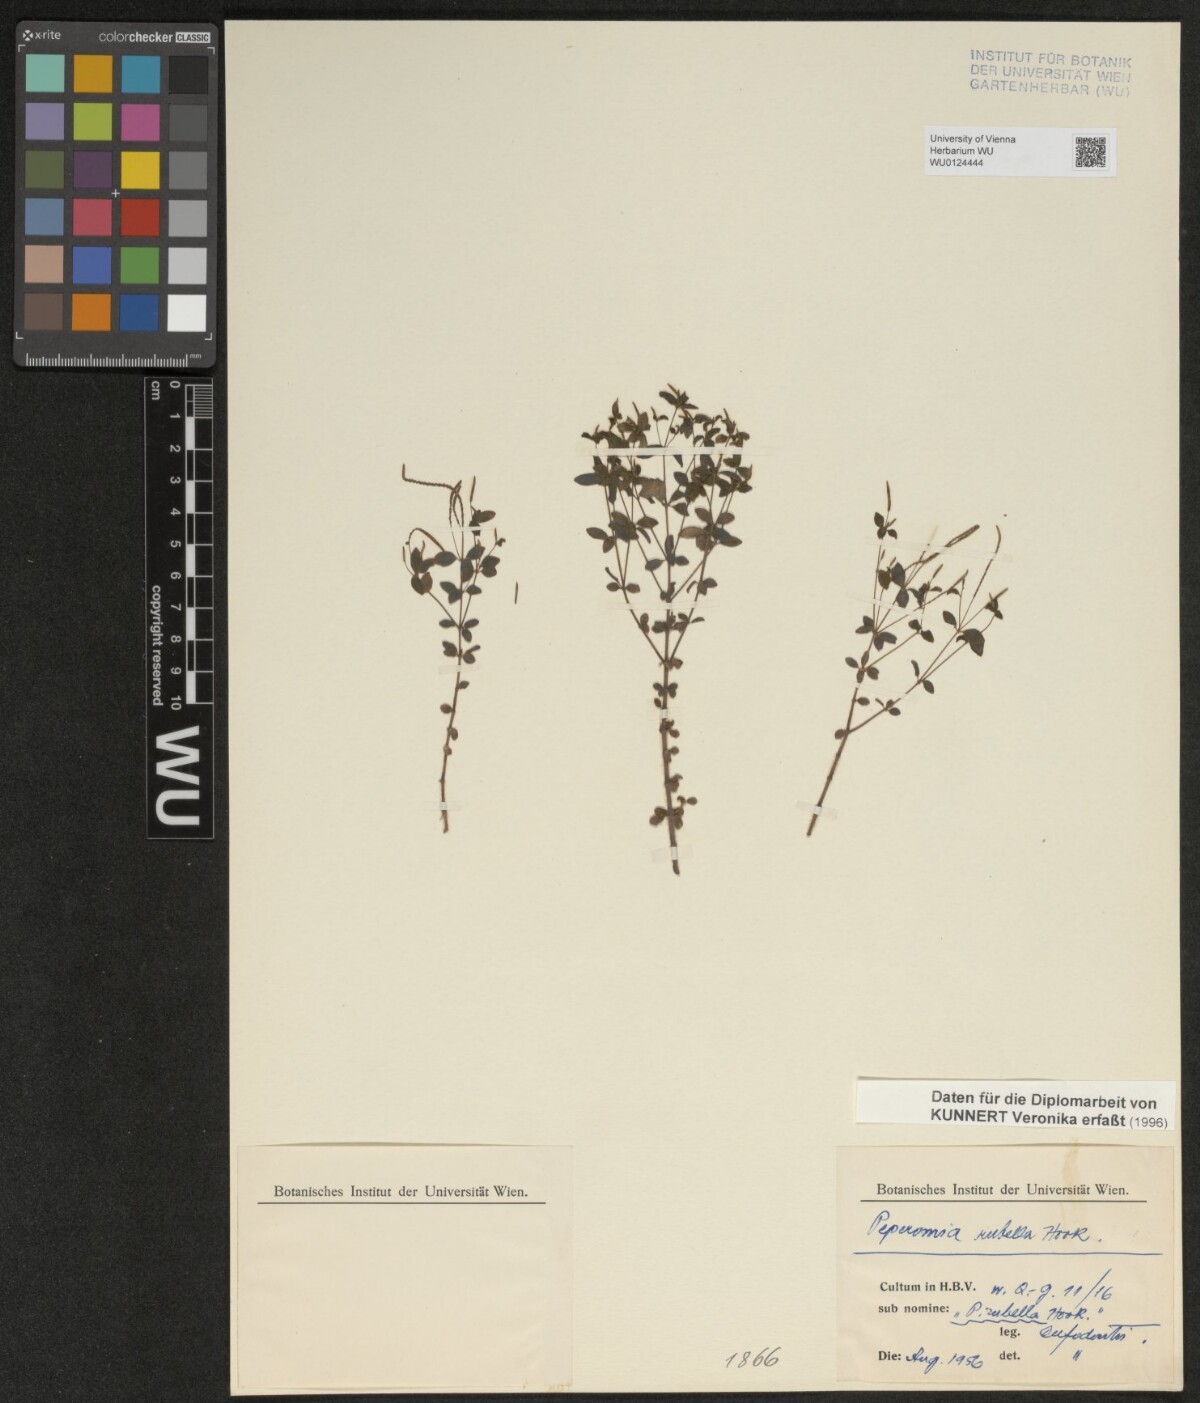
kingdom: Plantae
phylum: Tracheophyta
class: Magnoliopsida
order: Piperales
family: Piperaceae
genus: Peperomia
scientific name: Peperomia verticillata
